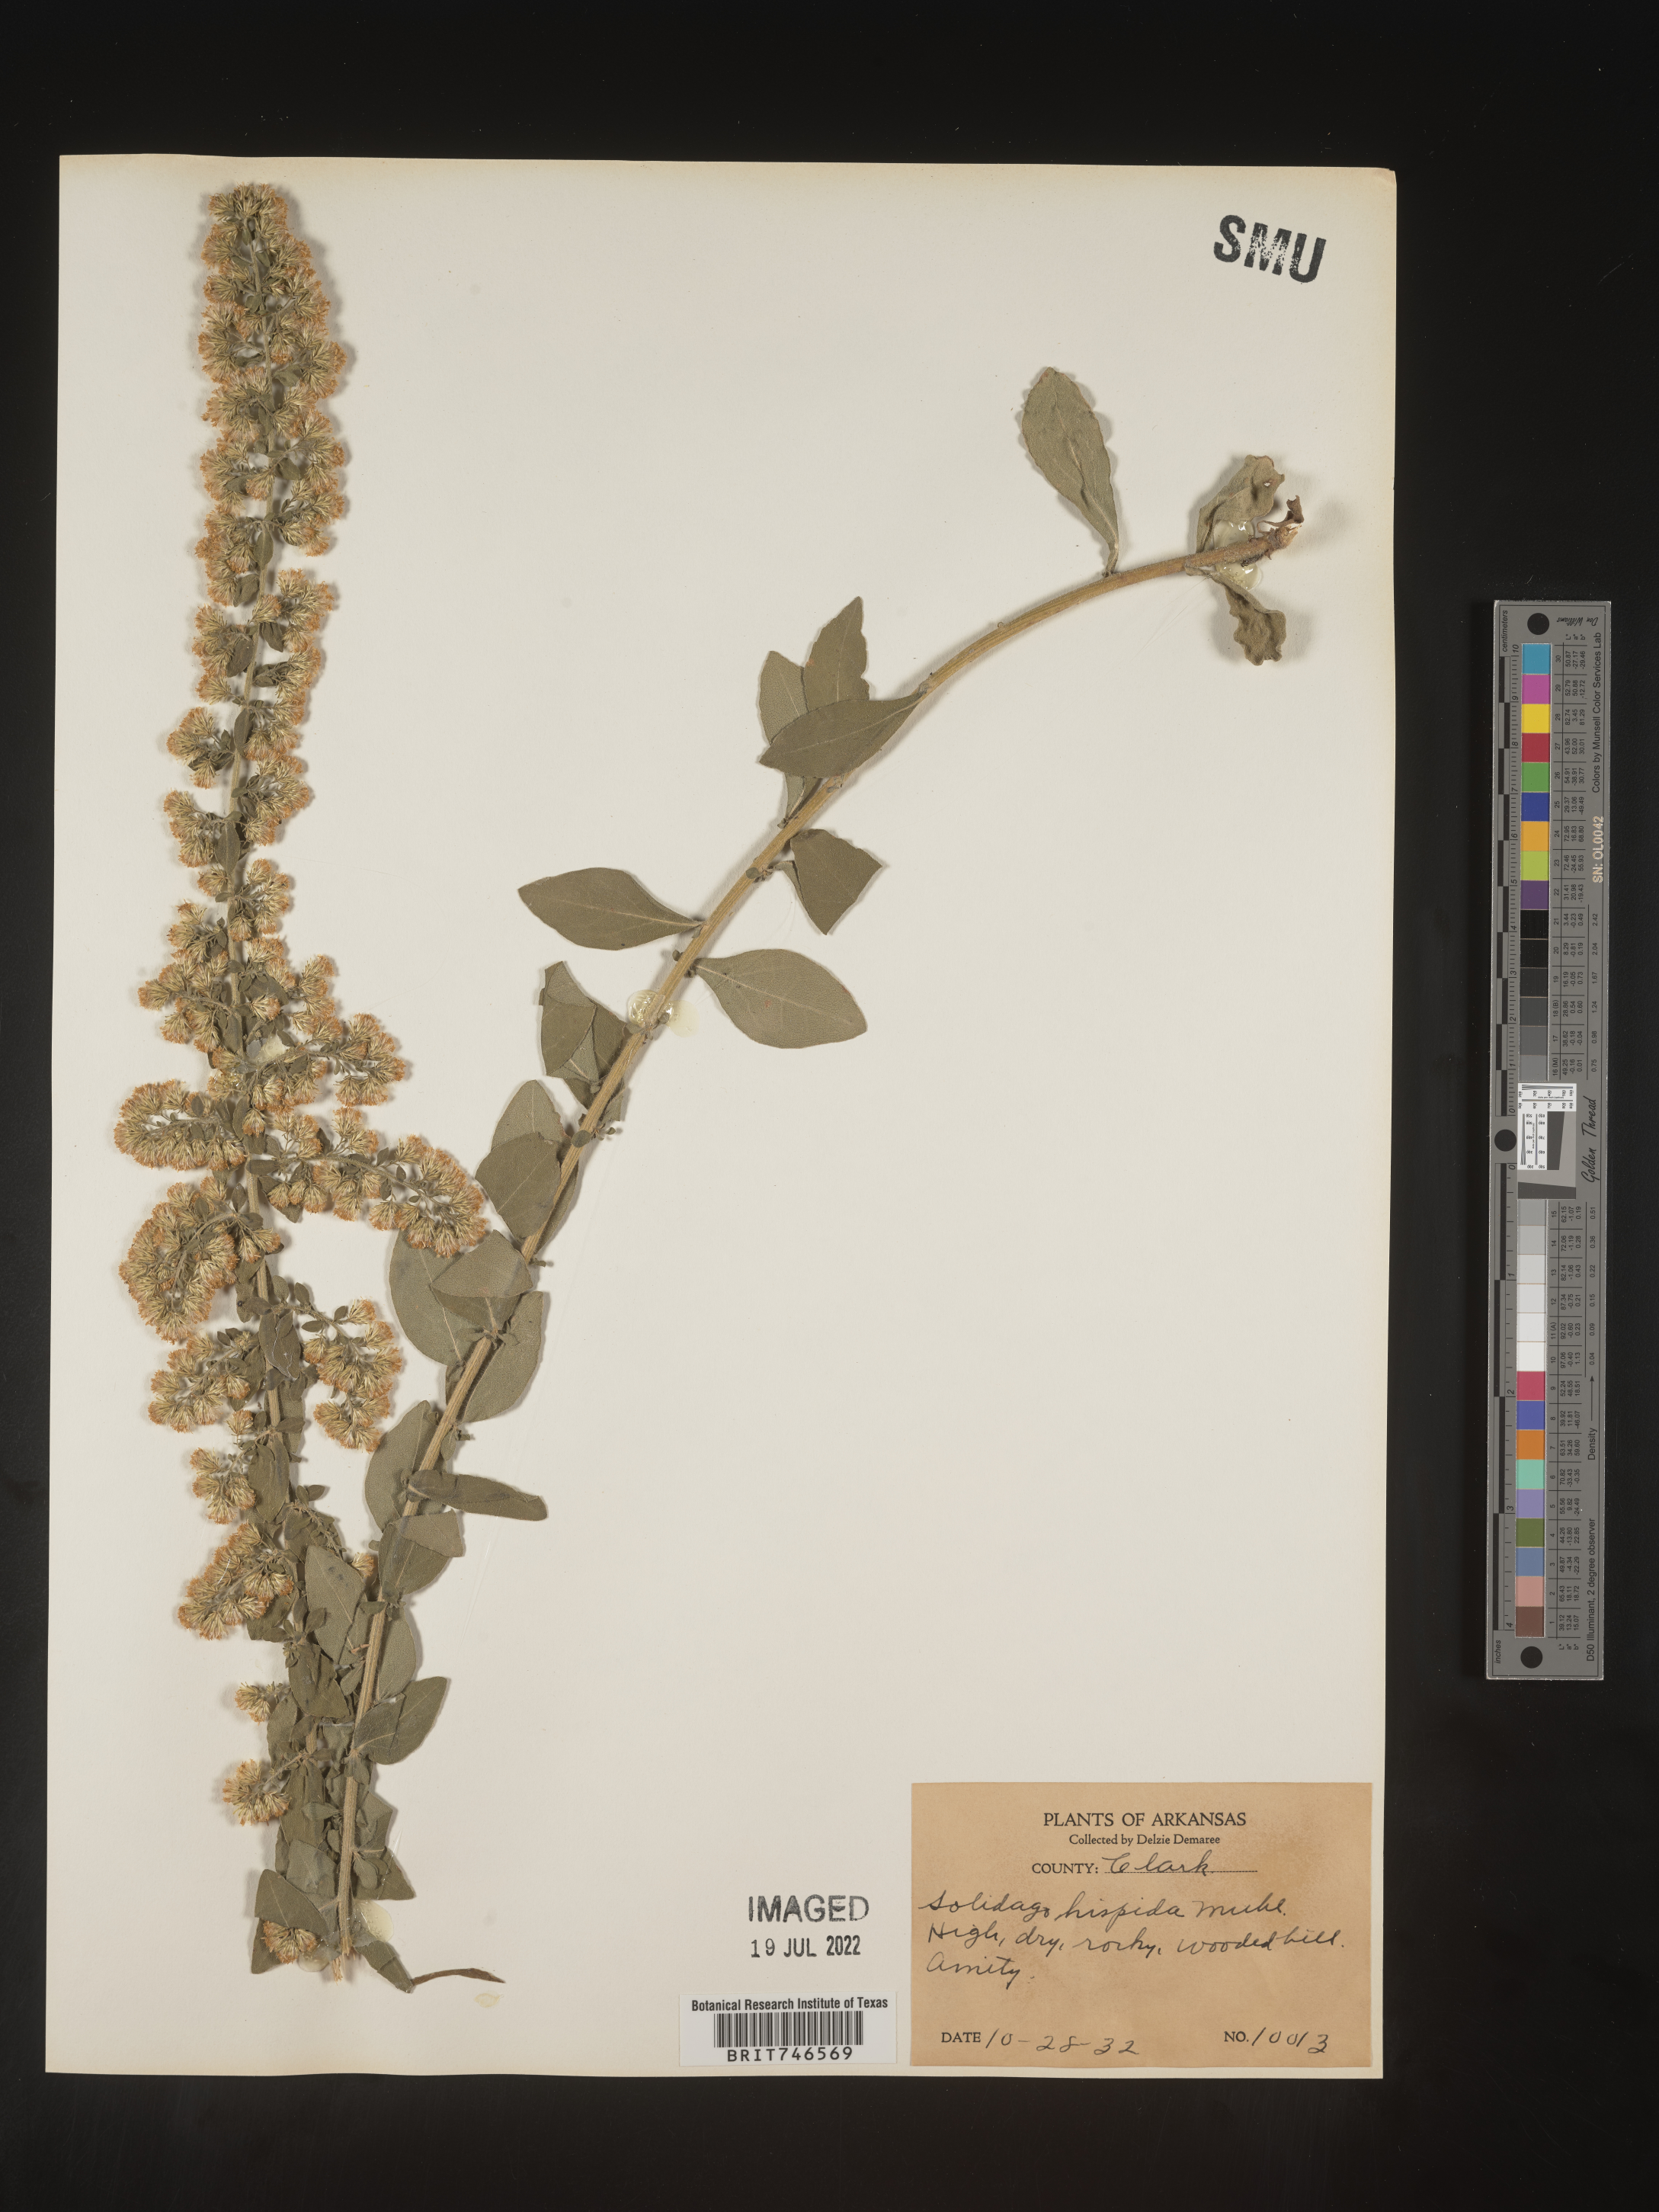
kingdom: Plantae
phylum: Tracheophyta
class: Magnoliopsida
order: Asterales
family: Asteraceae
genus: Solidago
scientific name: Solidago hispida
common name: Hairy goldenrod
